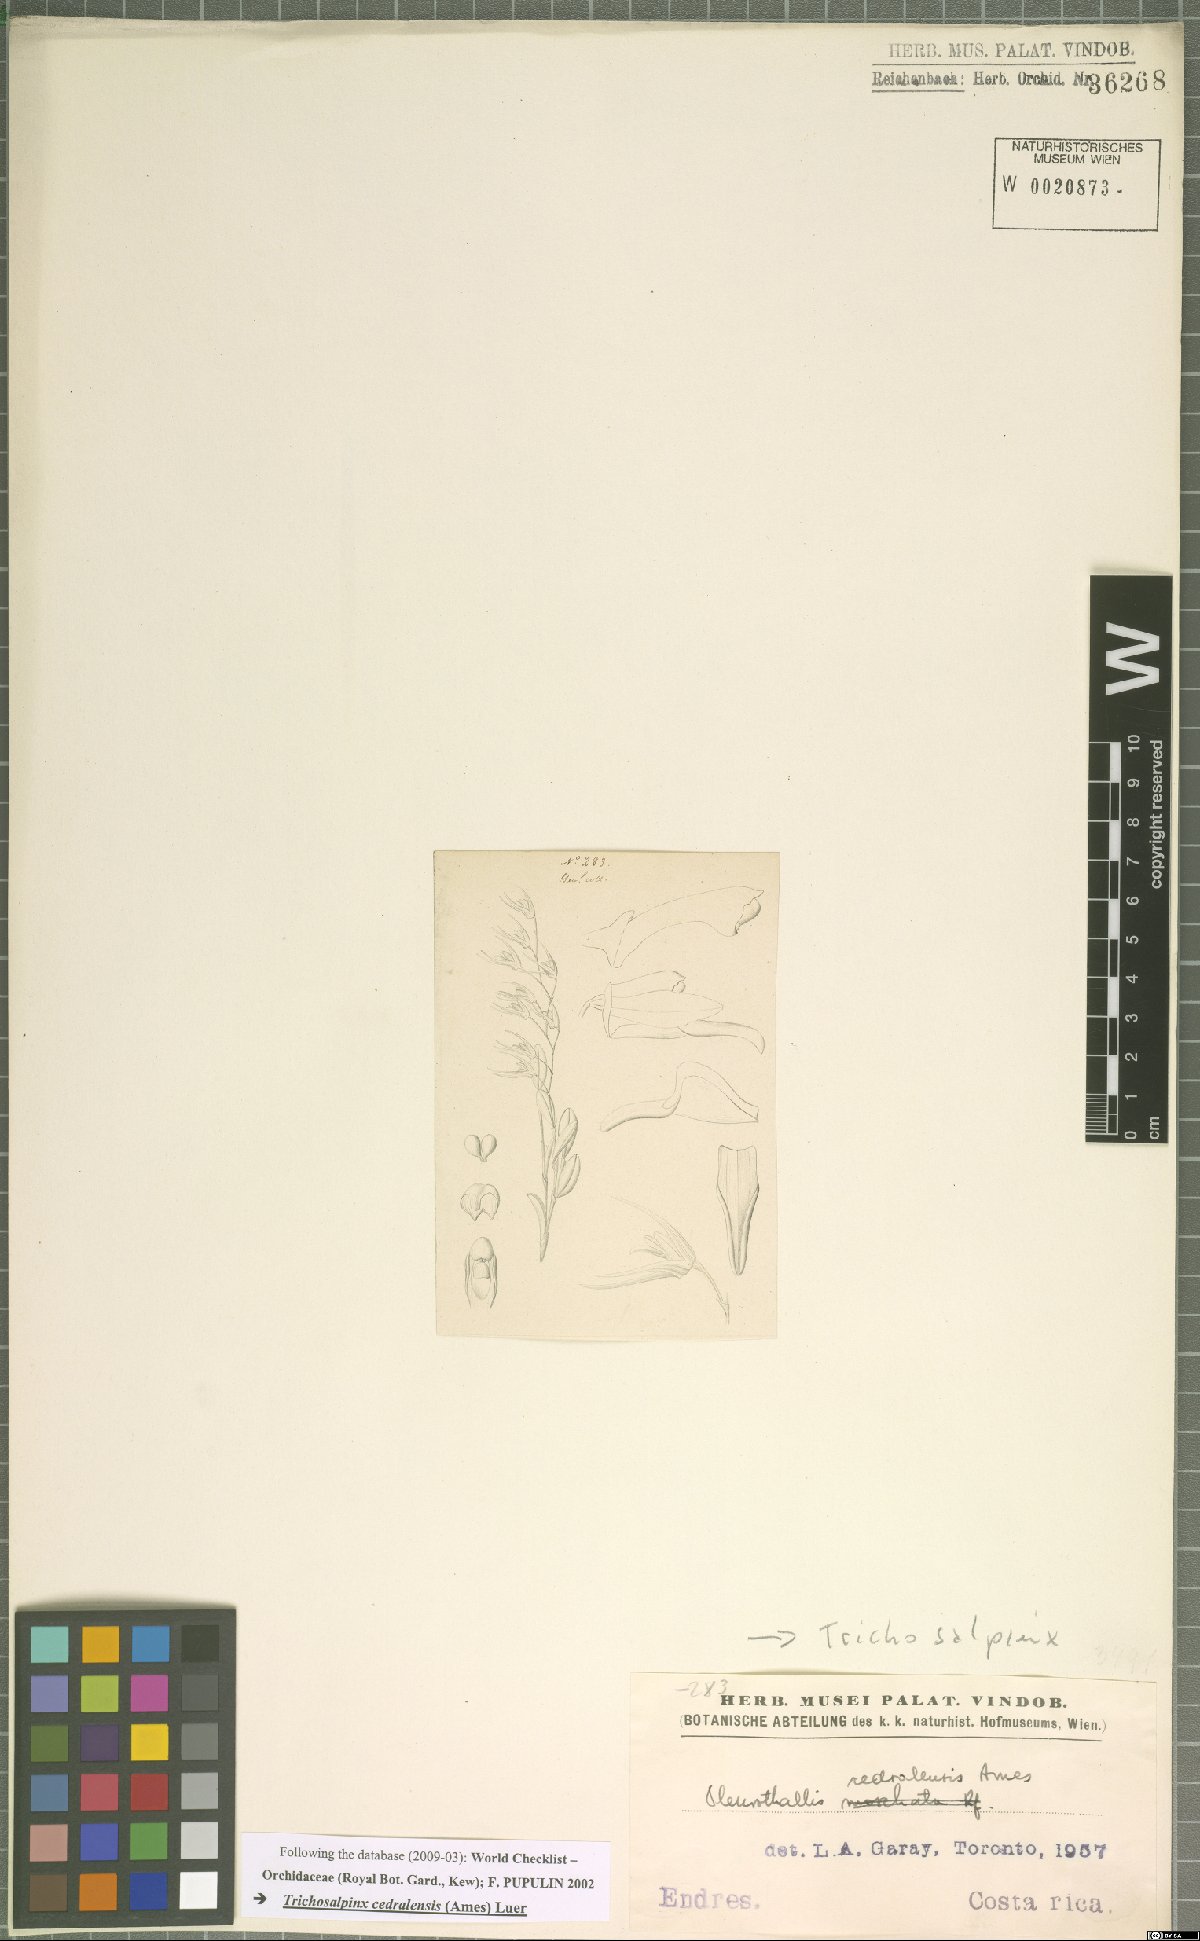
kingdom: Plantae
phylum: Tracheophyta
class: Liliopsida
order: Asparagales
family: Orchidaceae
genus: Trichosalpinx
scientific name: Trichosalpinx cedralensis
